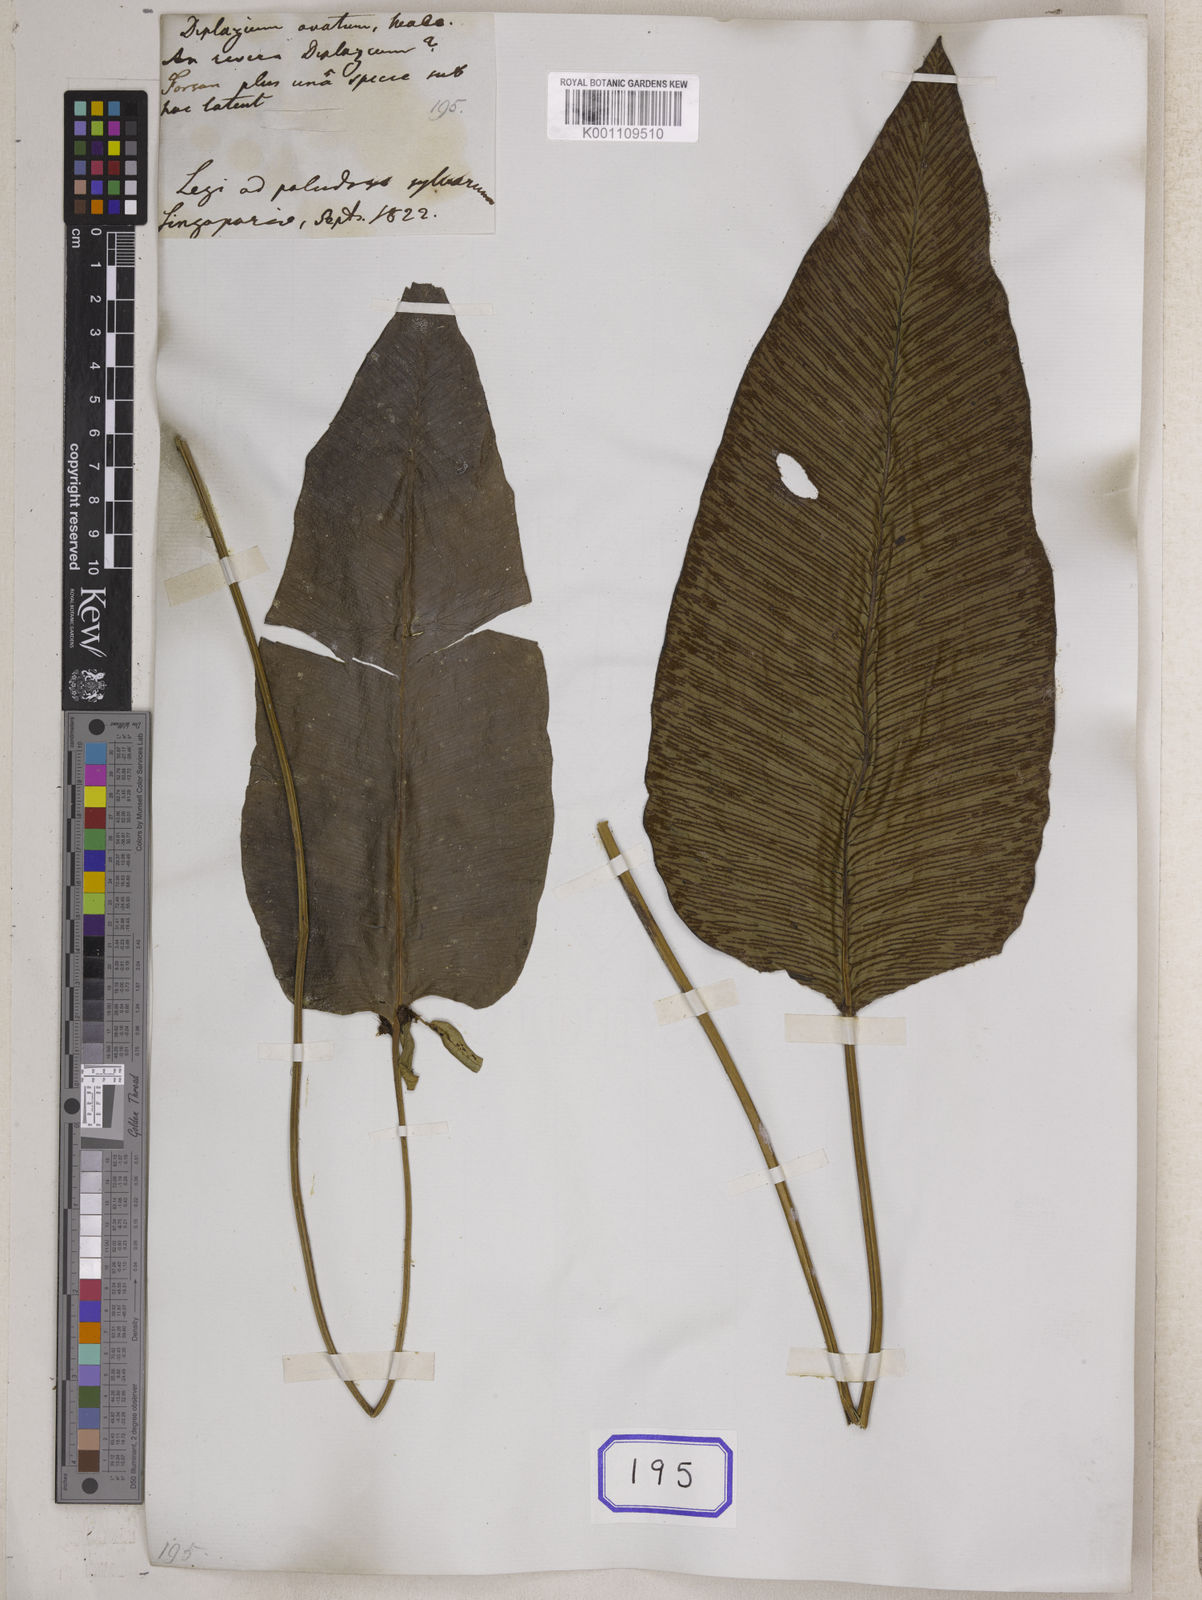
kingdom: Plantae
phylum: Tracheophyta
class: Polypodiopsida
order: Polypodiales
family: Pteridaceae
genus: Syngramma
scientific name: Syngramma wallichii
